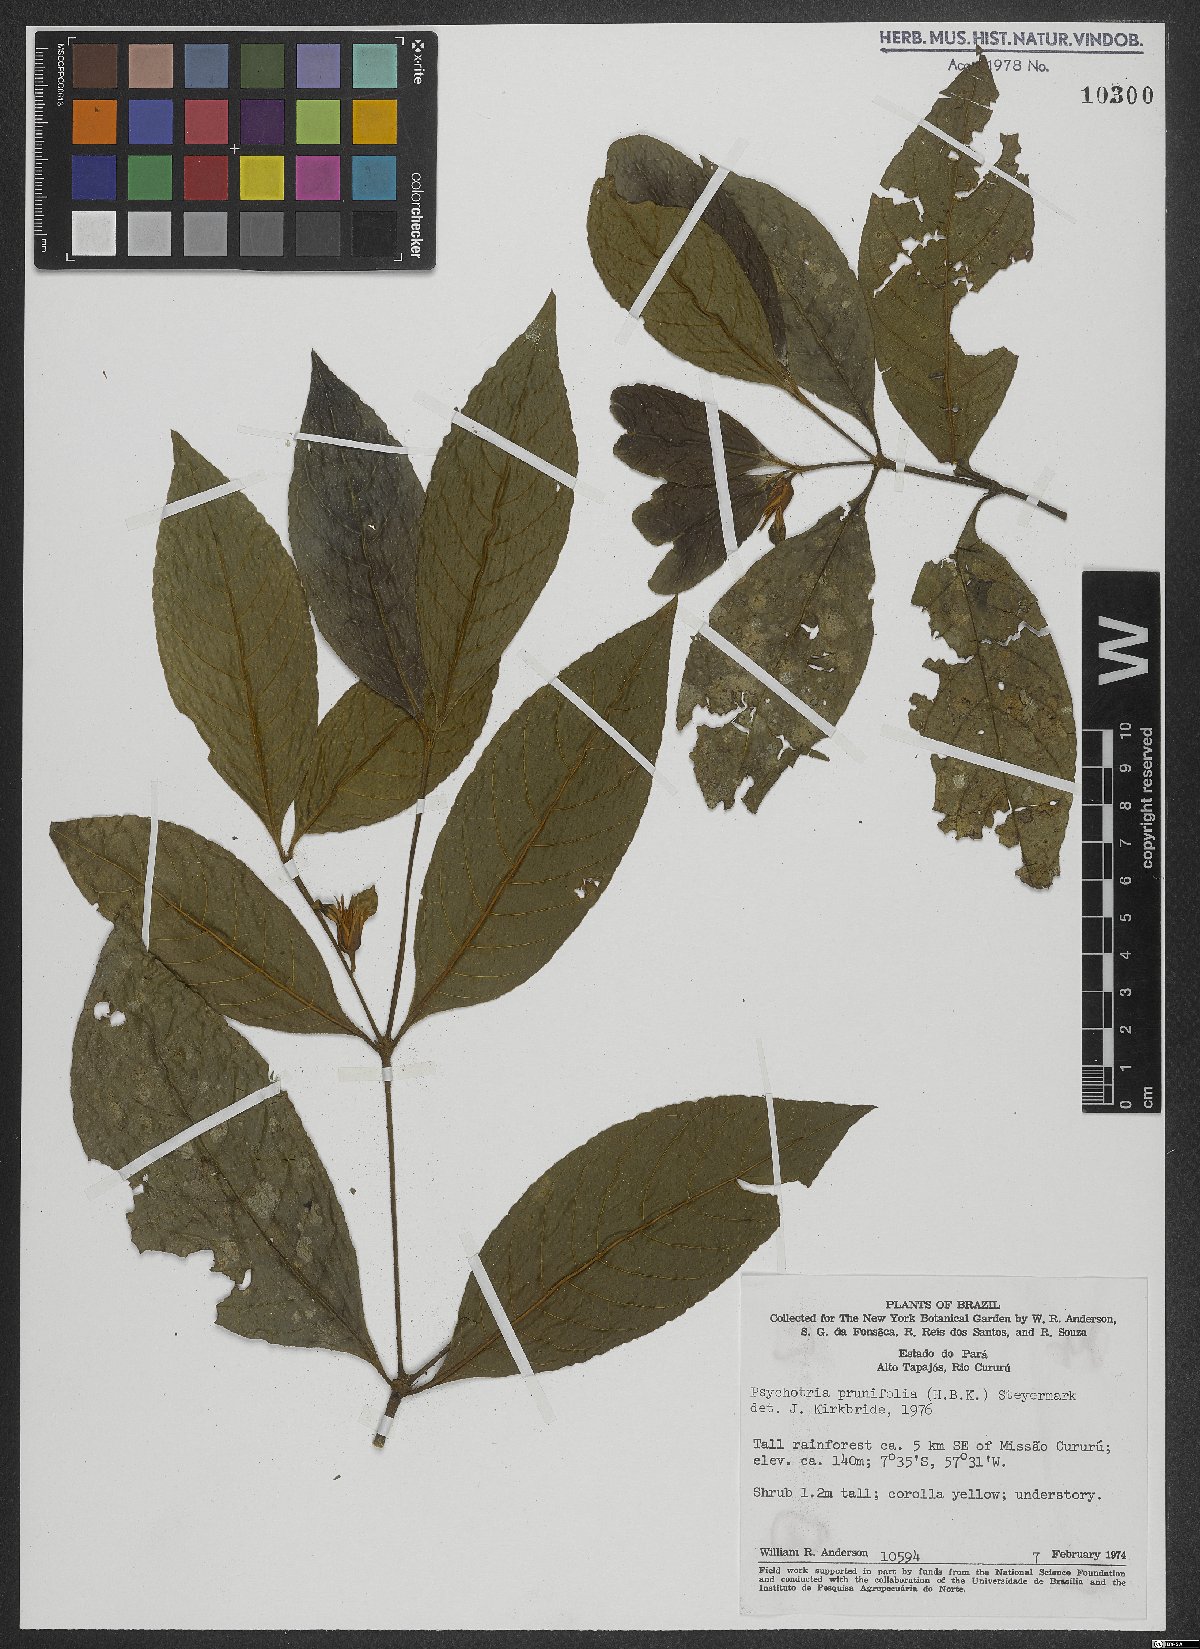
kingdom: Plantae
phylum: Tracheophyta
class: Magnoliopsida
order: Gentianales
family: Rubiaceae
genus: Palicourea
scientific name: Palicourea prunifolia
